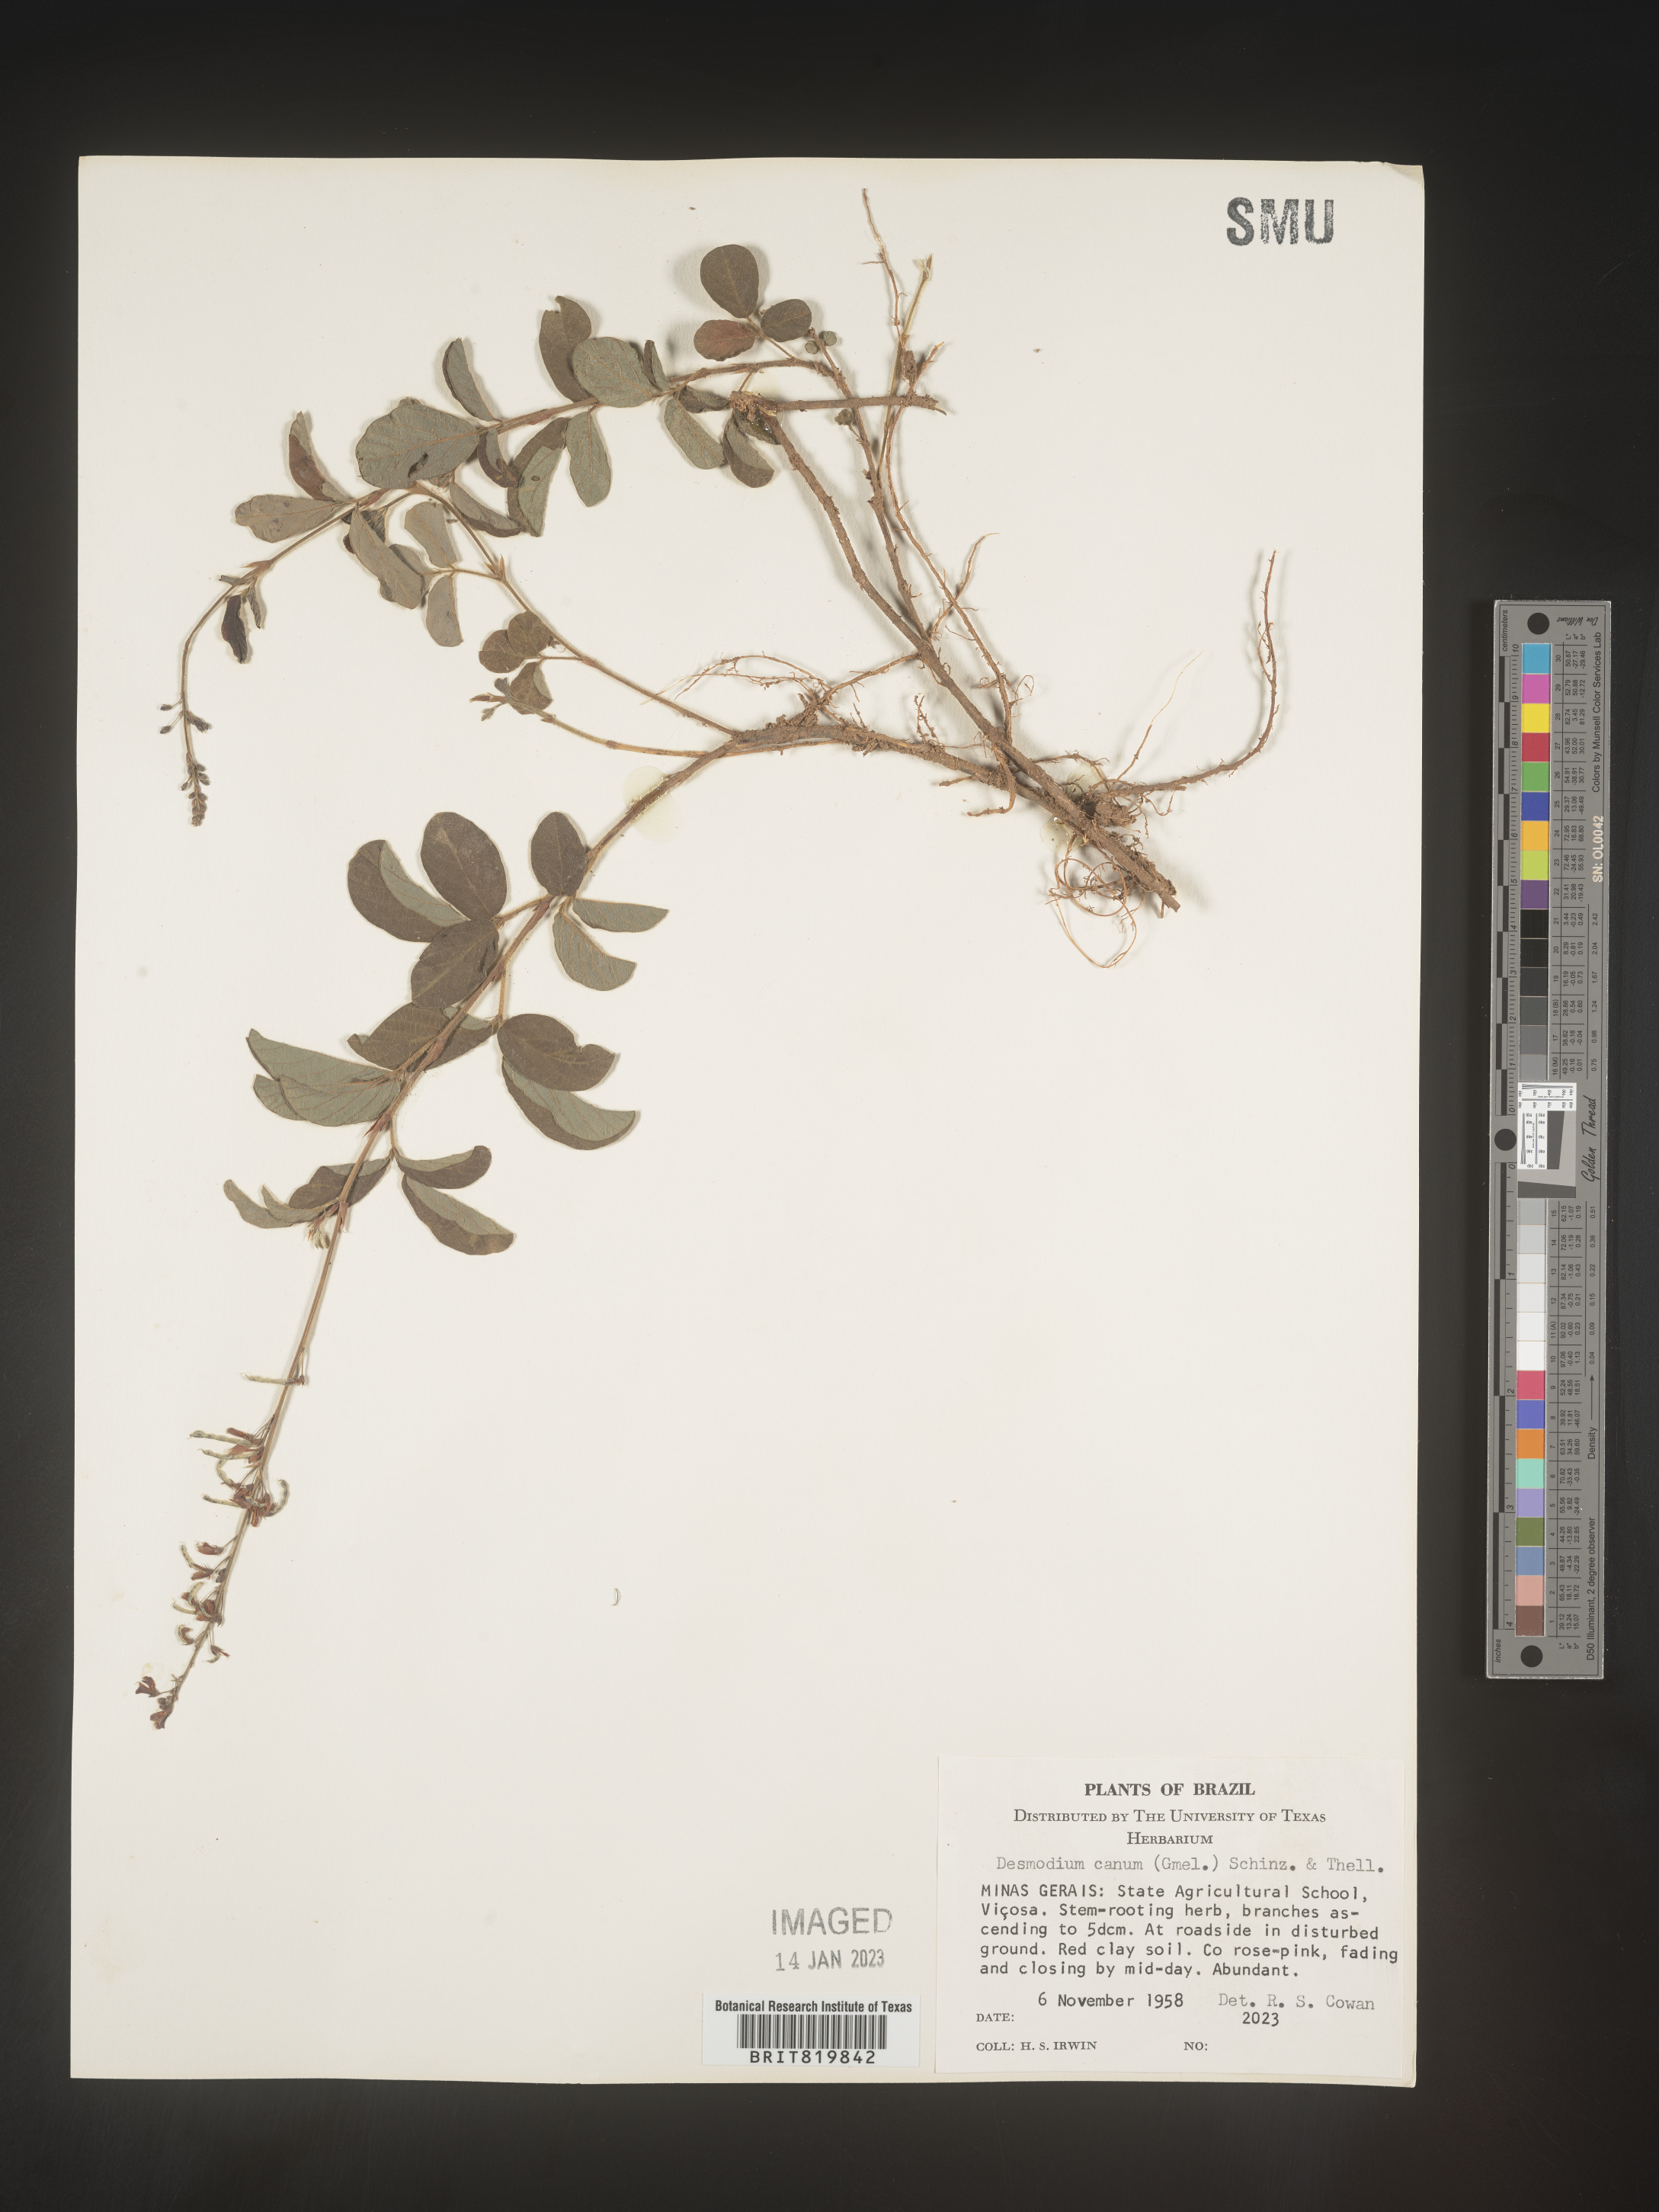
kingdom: Plantae
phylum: Tracheophyta
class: Magnoliopsida
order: Fabales
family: Fabaceae
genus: Desmodium
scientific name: Desmodium
